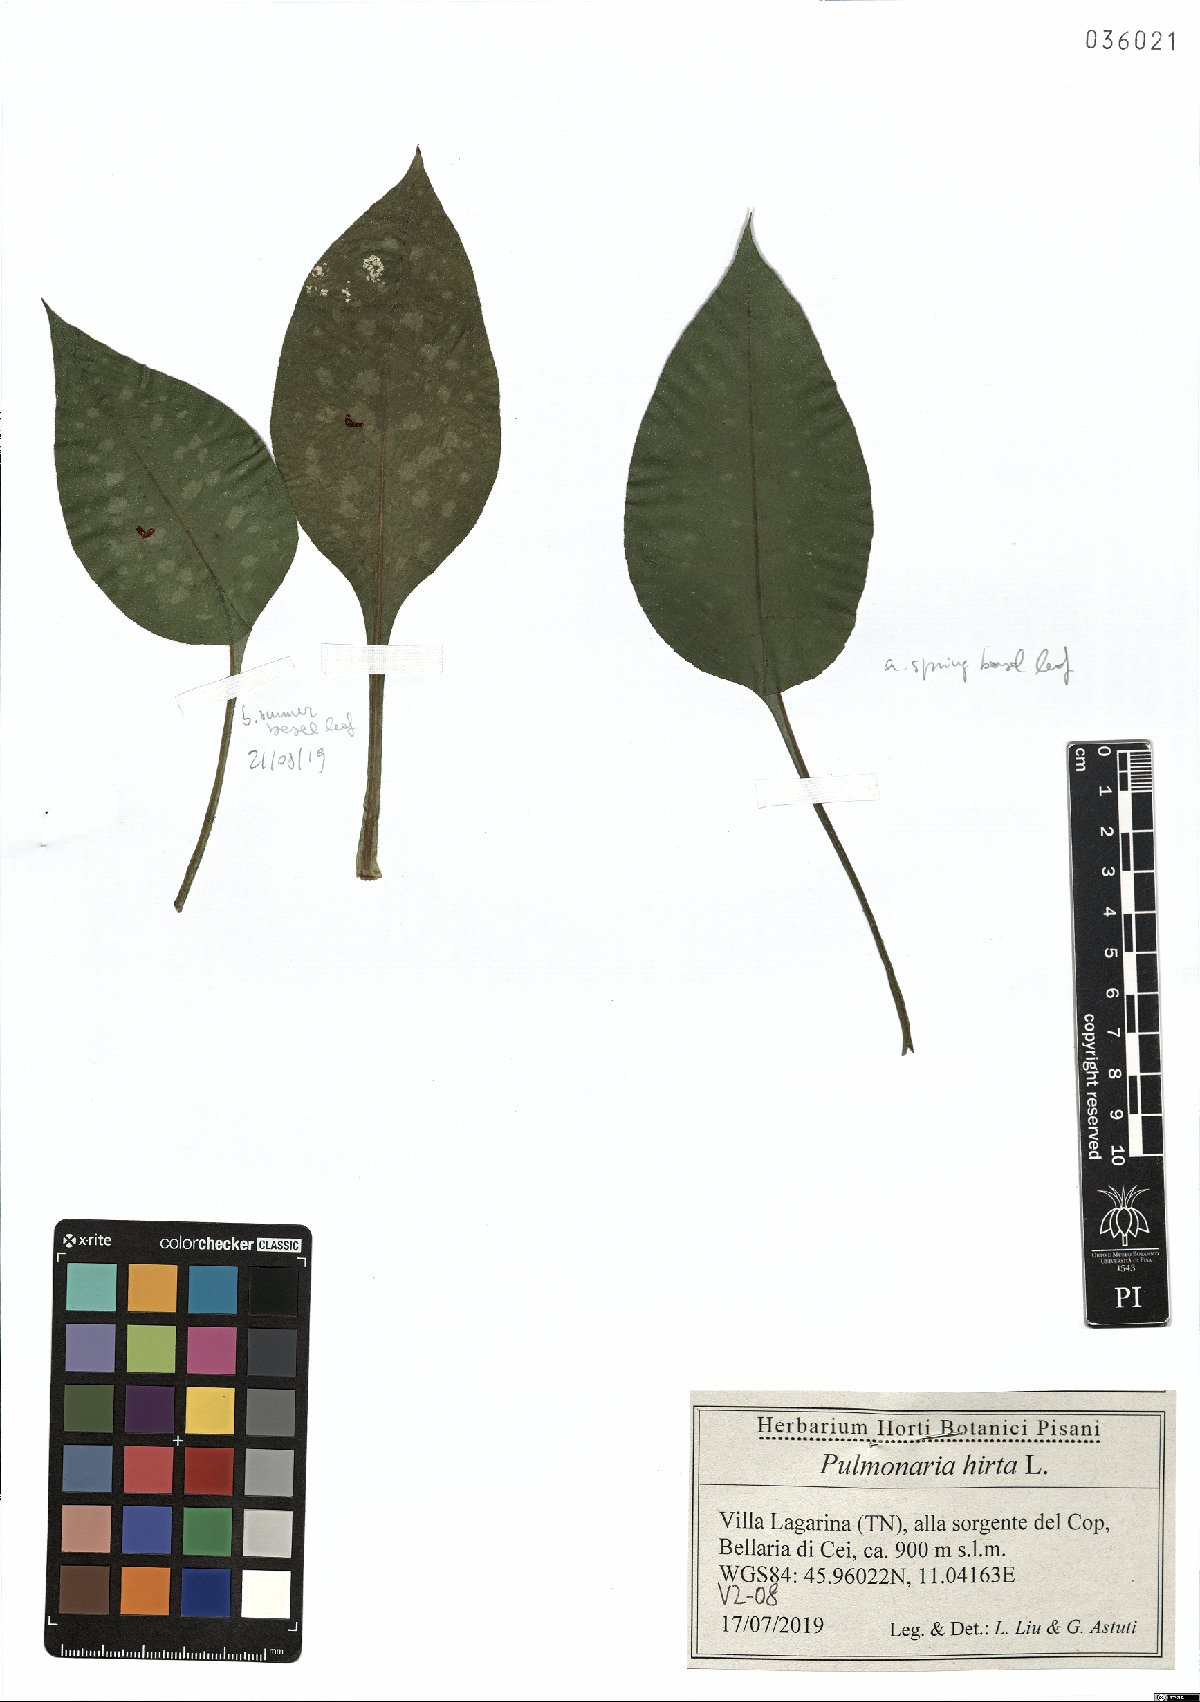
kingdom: Plantae
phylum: Tracheophyta
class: Magnoliopsida
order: Boraginales
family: Boraginaceae
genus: Pulmonaria
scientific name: Pulmonaria hirta
